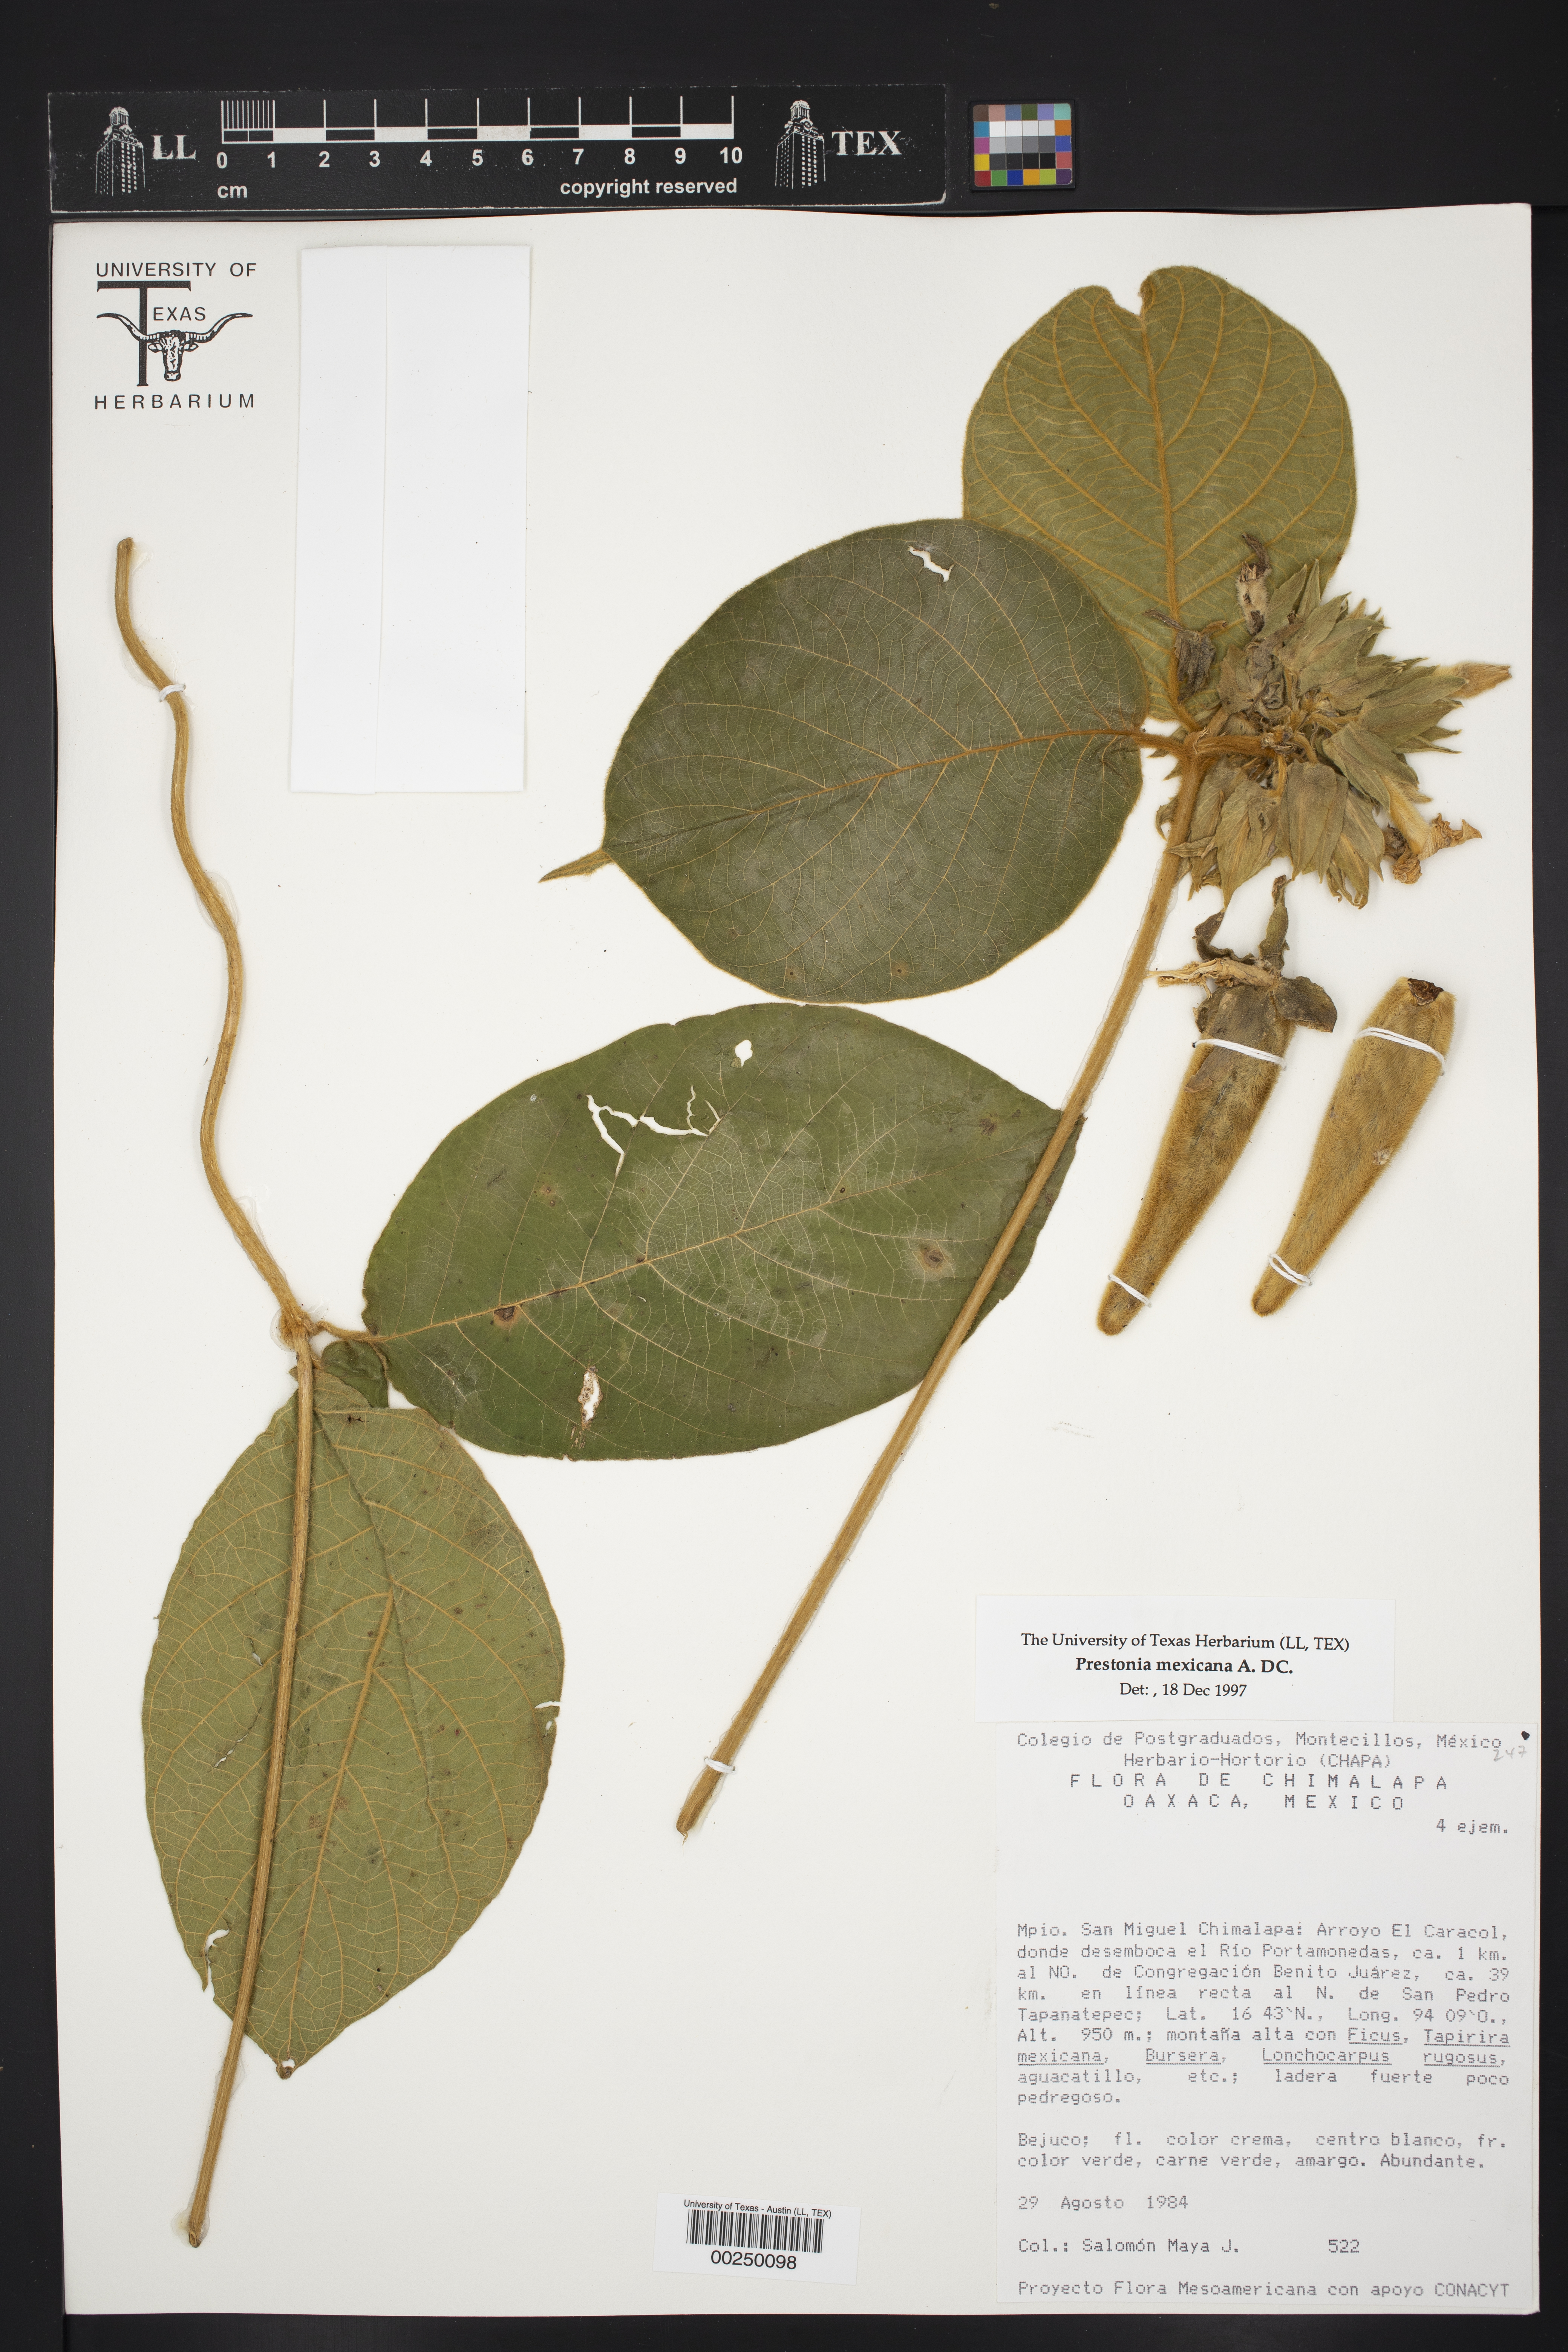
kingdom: Plantae
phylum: Tracheophyta
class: Magnoliopsida
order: Gentianales
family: Apocynaceae
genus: Prestonia
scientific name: Prestonia mexicana
